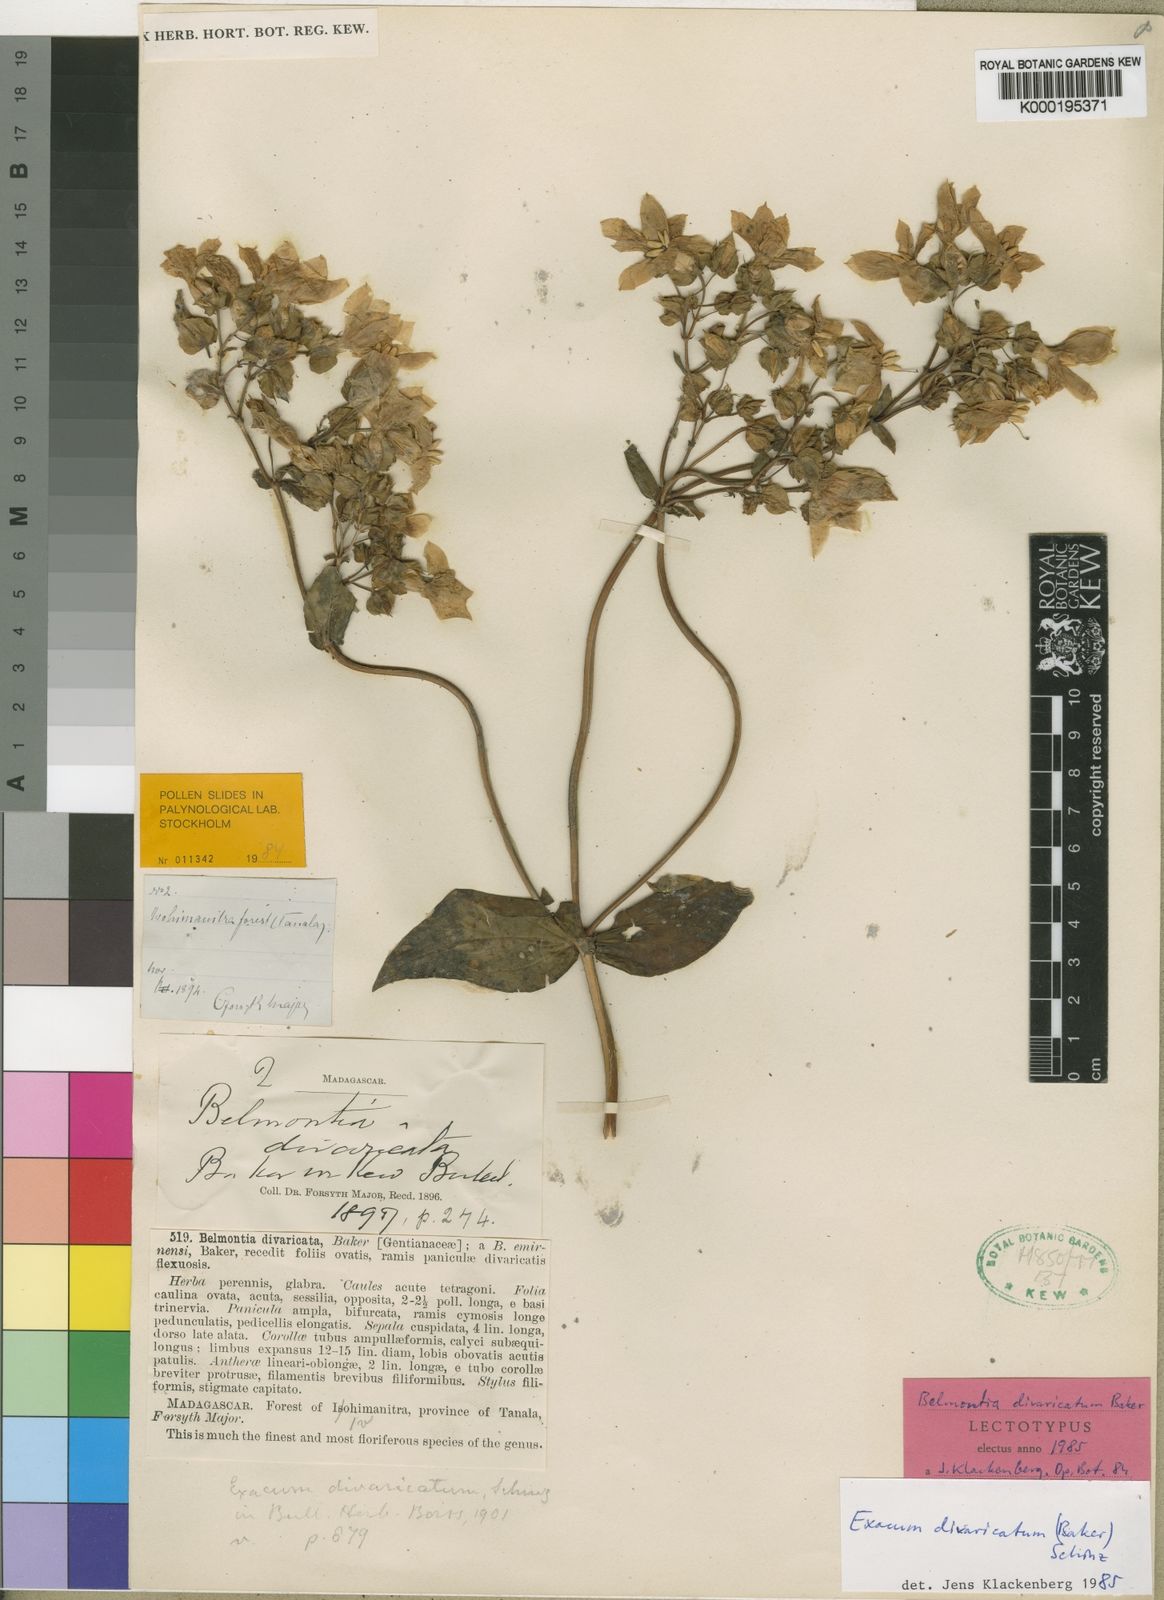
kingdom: Plantae
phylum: Tracheophyta
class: Magnoliopsida
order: Gentianales
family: Gentianaceae
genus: Exacum
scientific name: Exacum divaricatum
